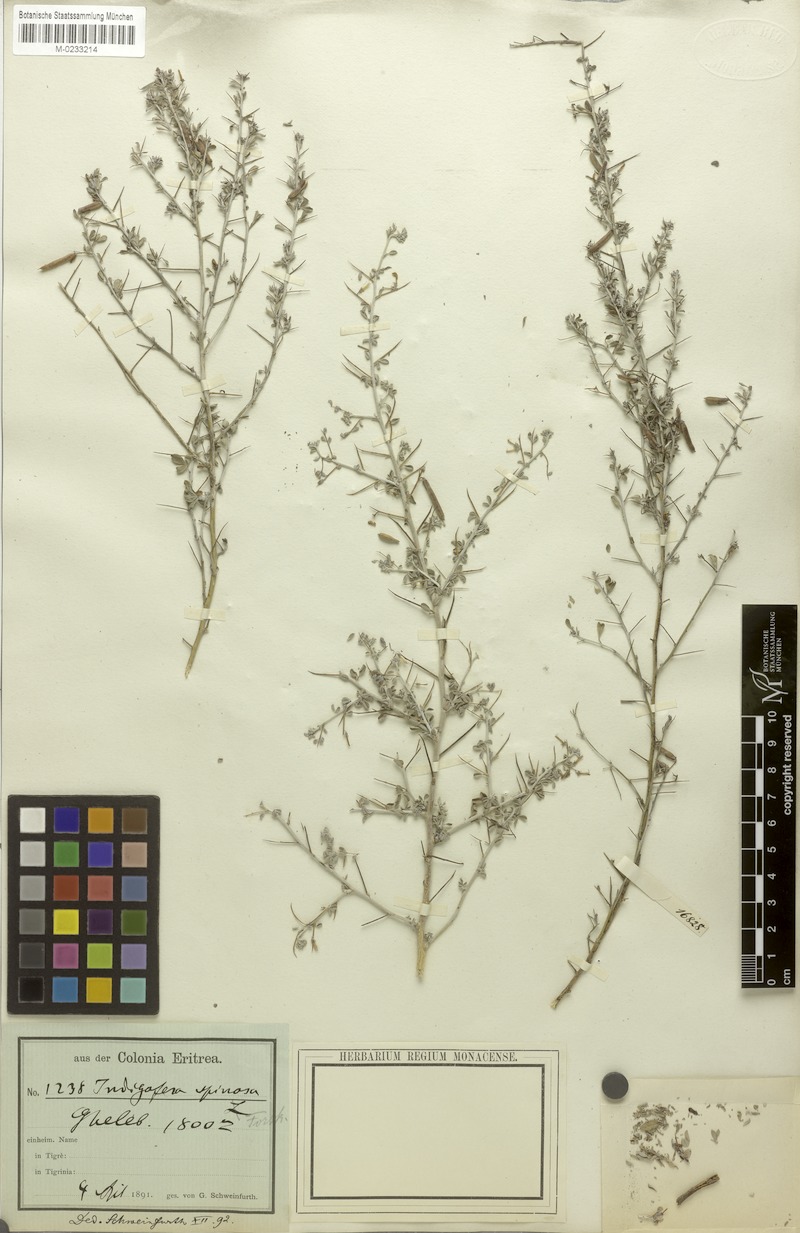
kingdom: Plantae
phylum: Tracheophyta
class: Magnoliopsida
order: Fabales
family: Fabaceae
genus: Indigofera
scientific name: Indigofera spinosa
